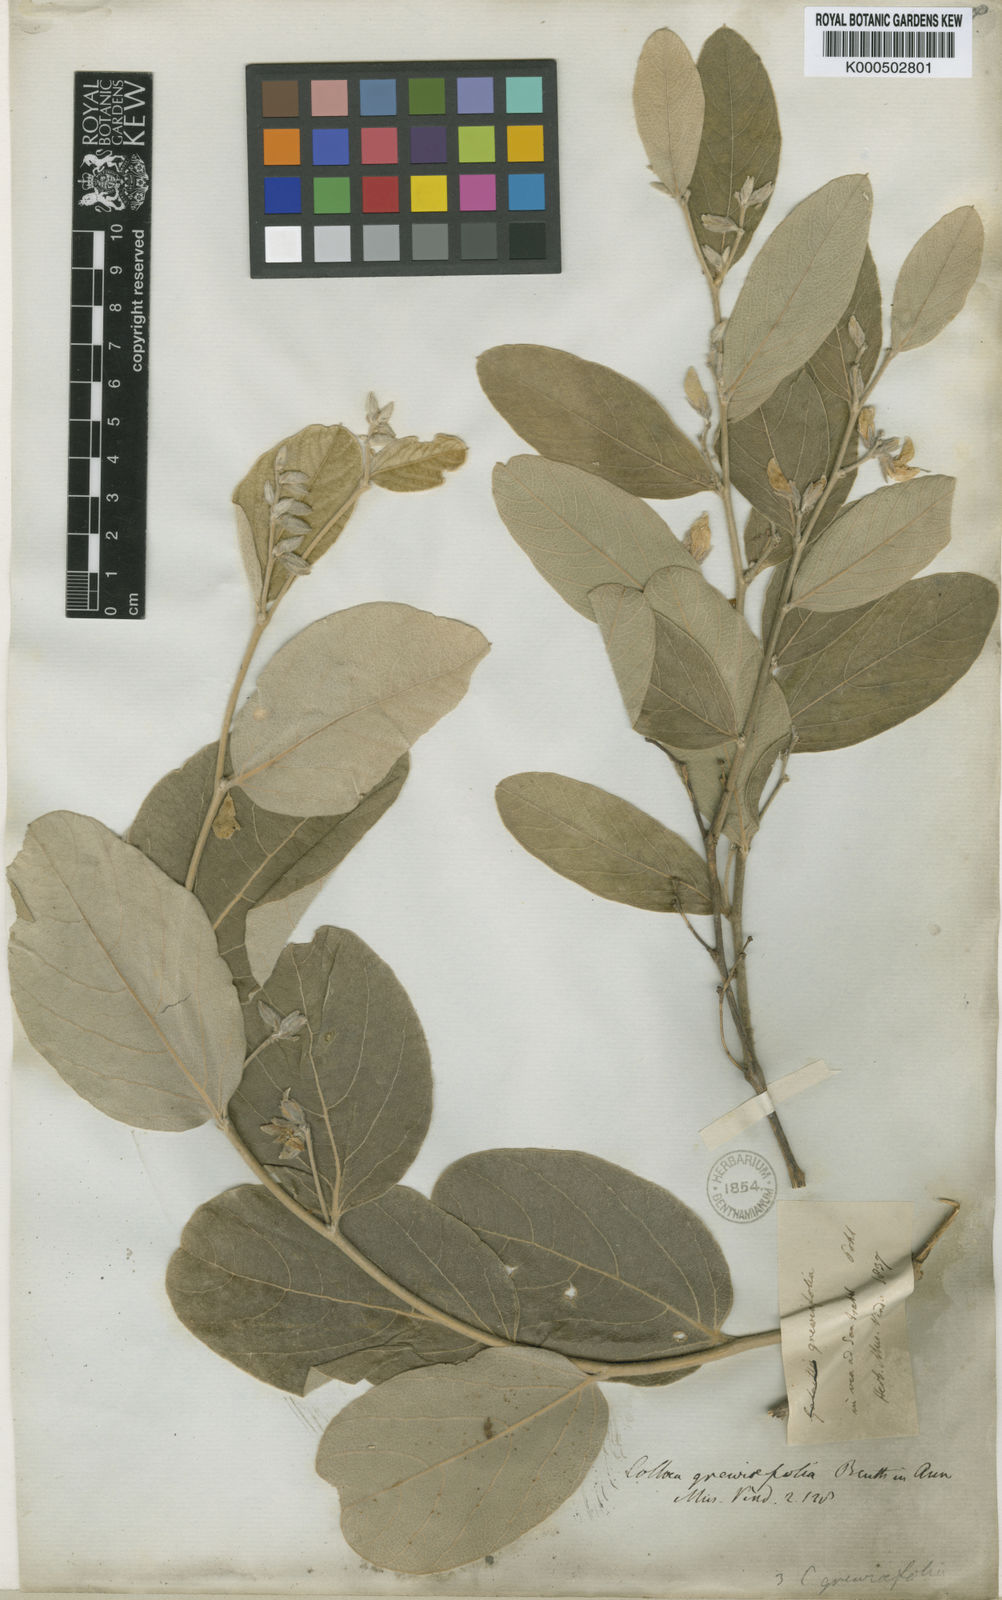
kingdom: Plantae
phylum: Tracheophyta
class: Magnoliopsida
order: Fabales
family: Fabaceae
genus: Cerradicola
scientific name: Cerradicola grewiifolia
